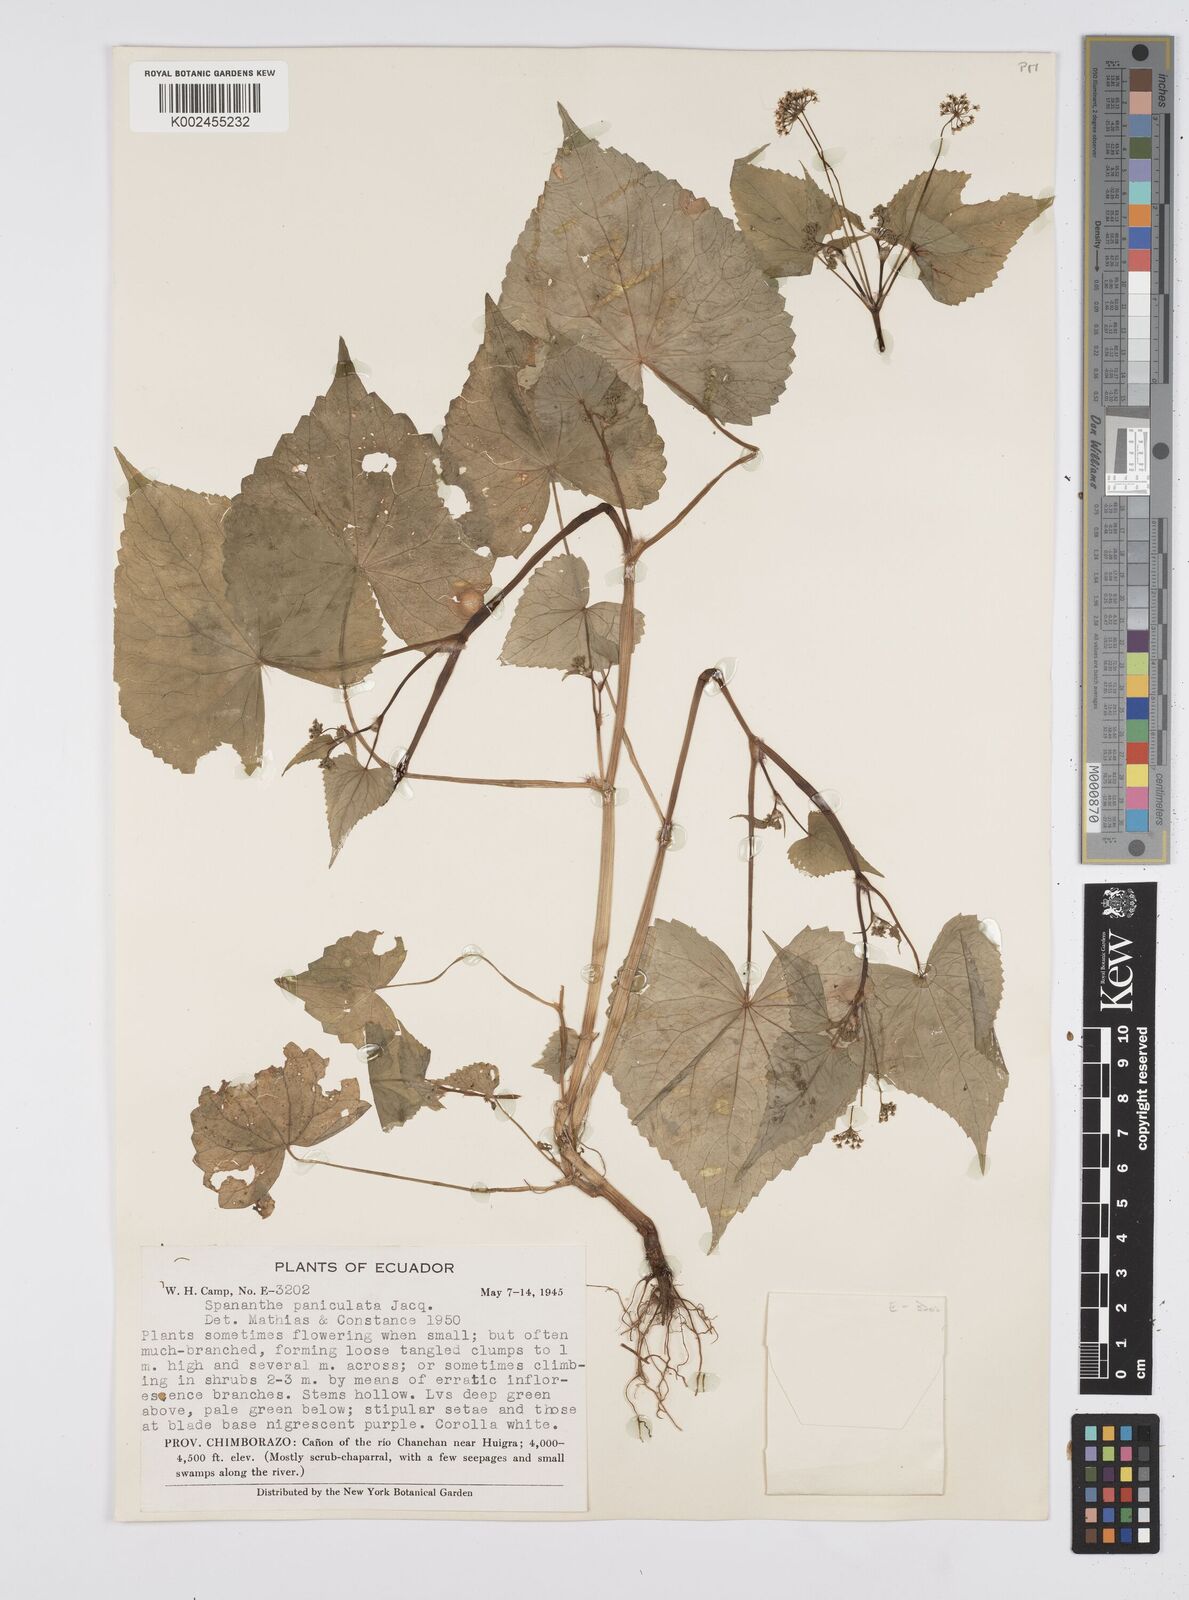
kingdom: Plantae
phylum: Tracheophyta
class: Magnoliopsida
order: Apiales
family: Apiaceae
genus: Azorella
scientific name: Azorella
